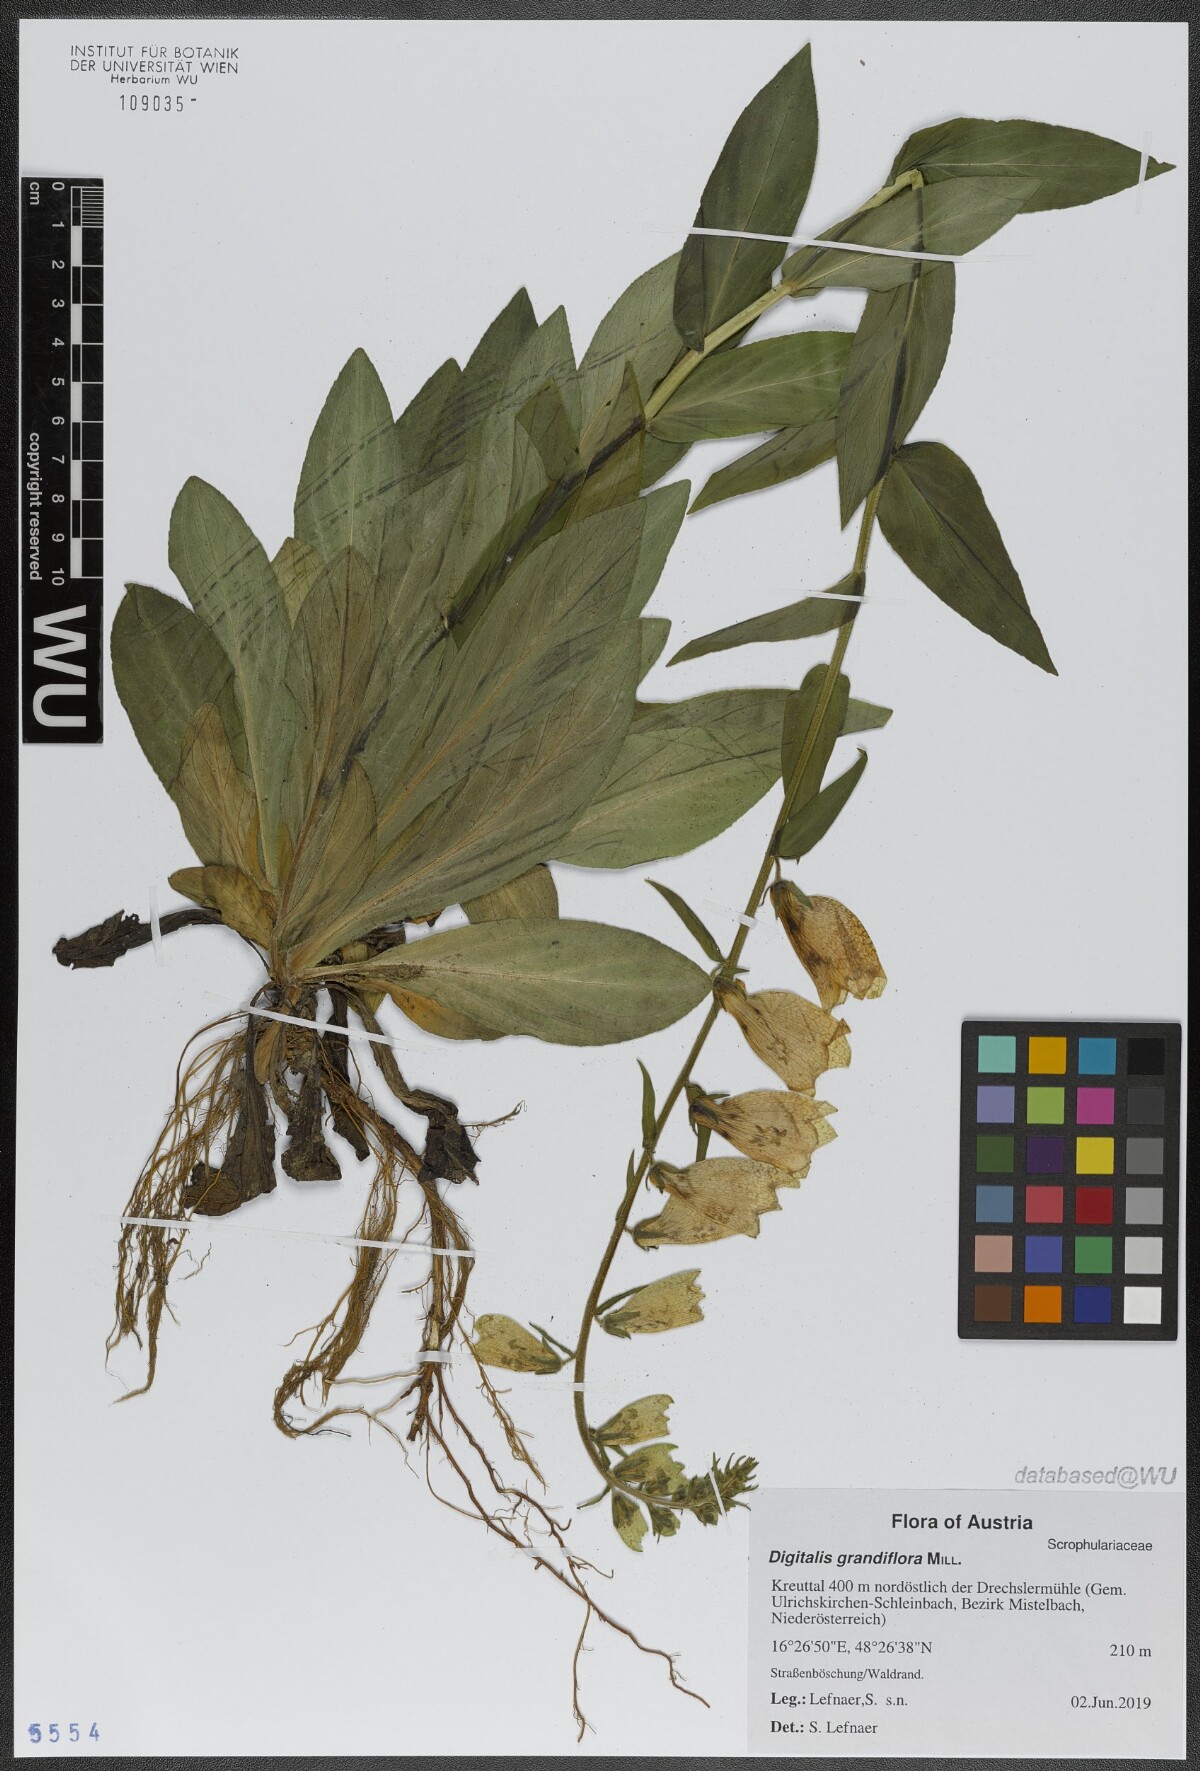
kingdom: Plantae
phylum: Tracheophyta
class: Magnoliopsida
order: Lamiales
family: Plantaginaceae
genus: Digitalis
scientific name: Digitalis grandiflora
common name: Yellow foxglove
